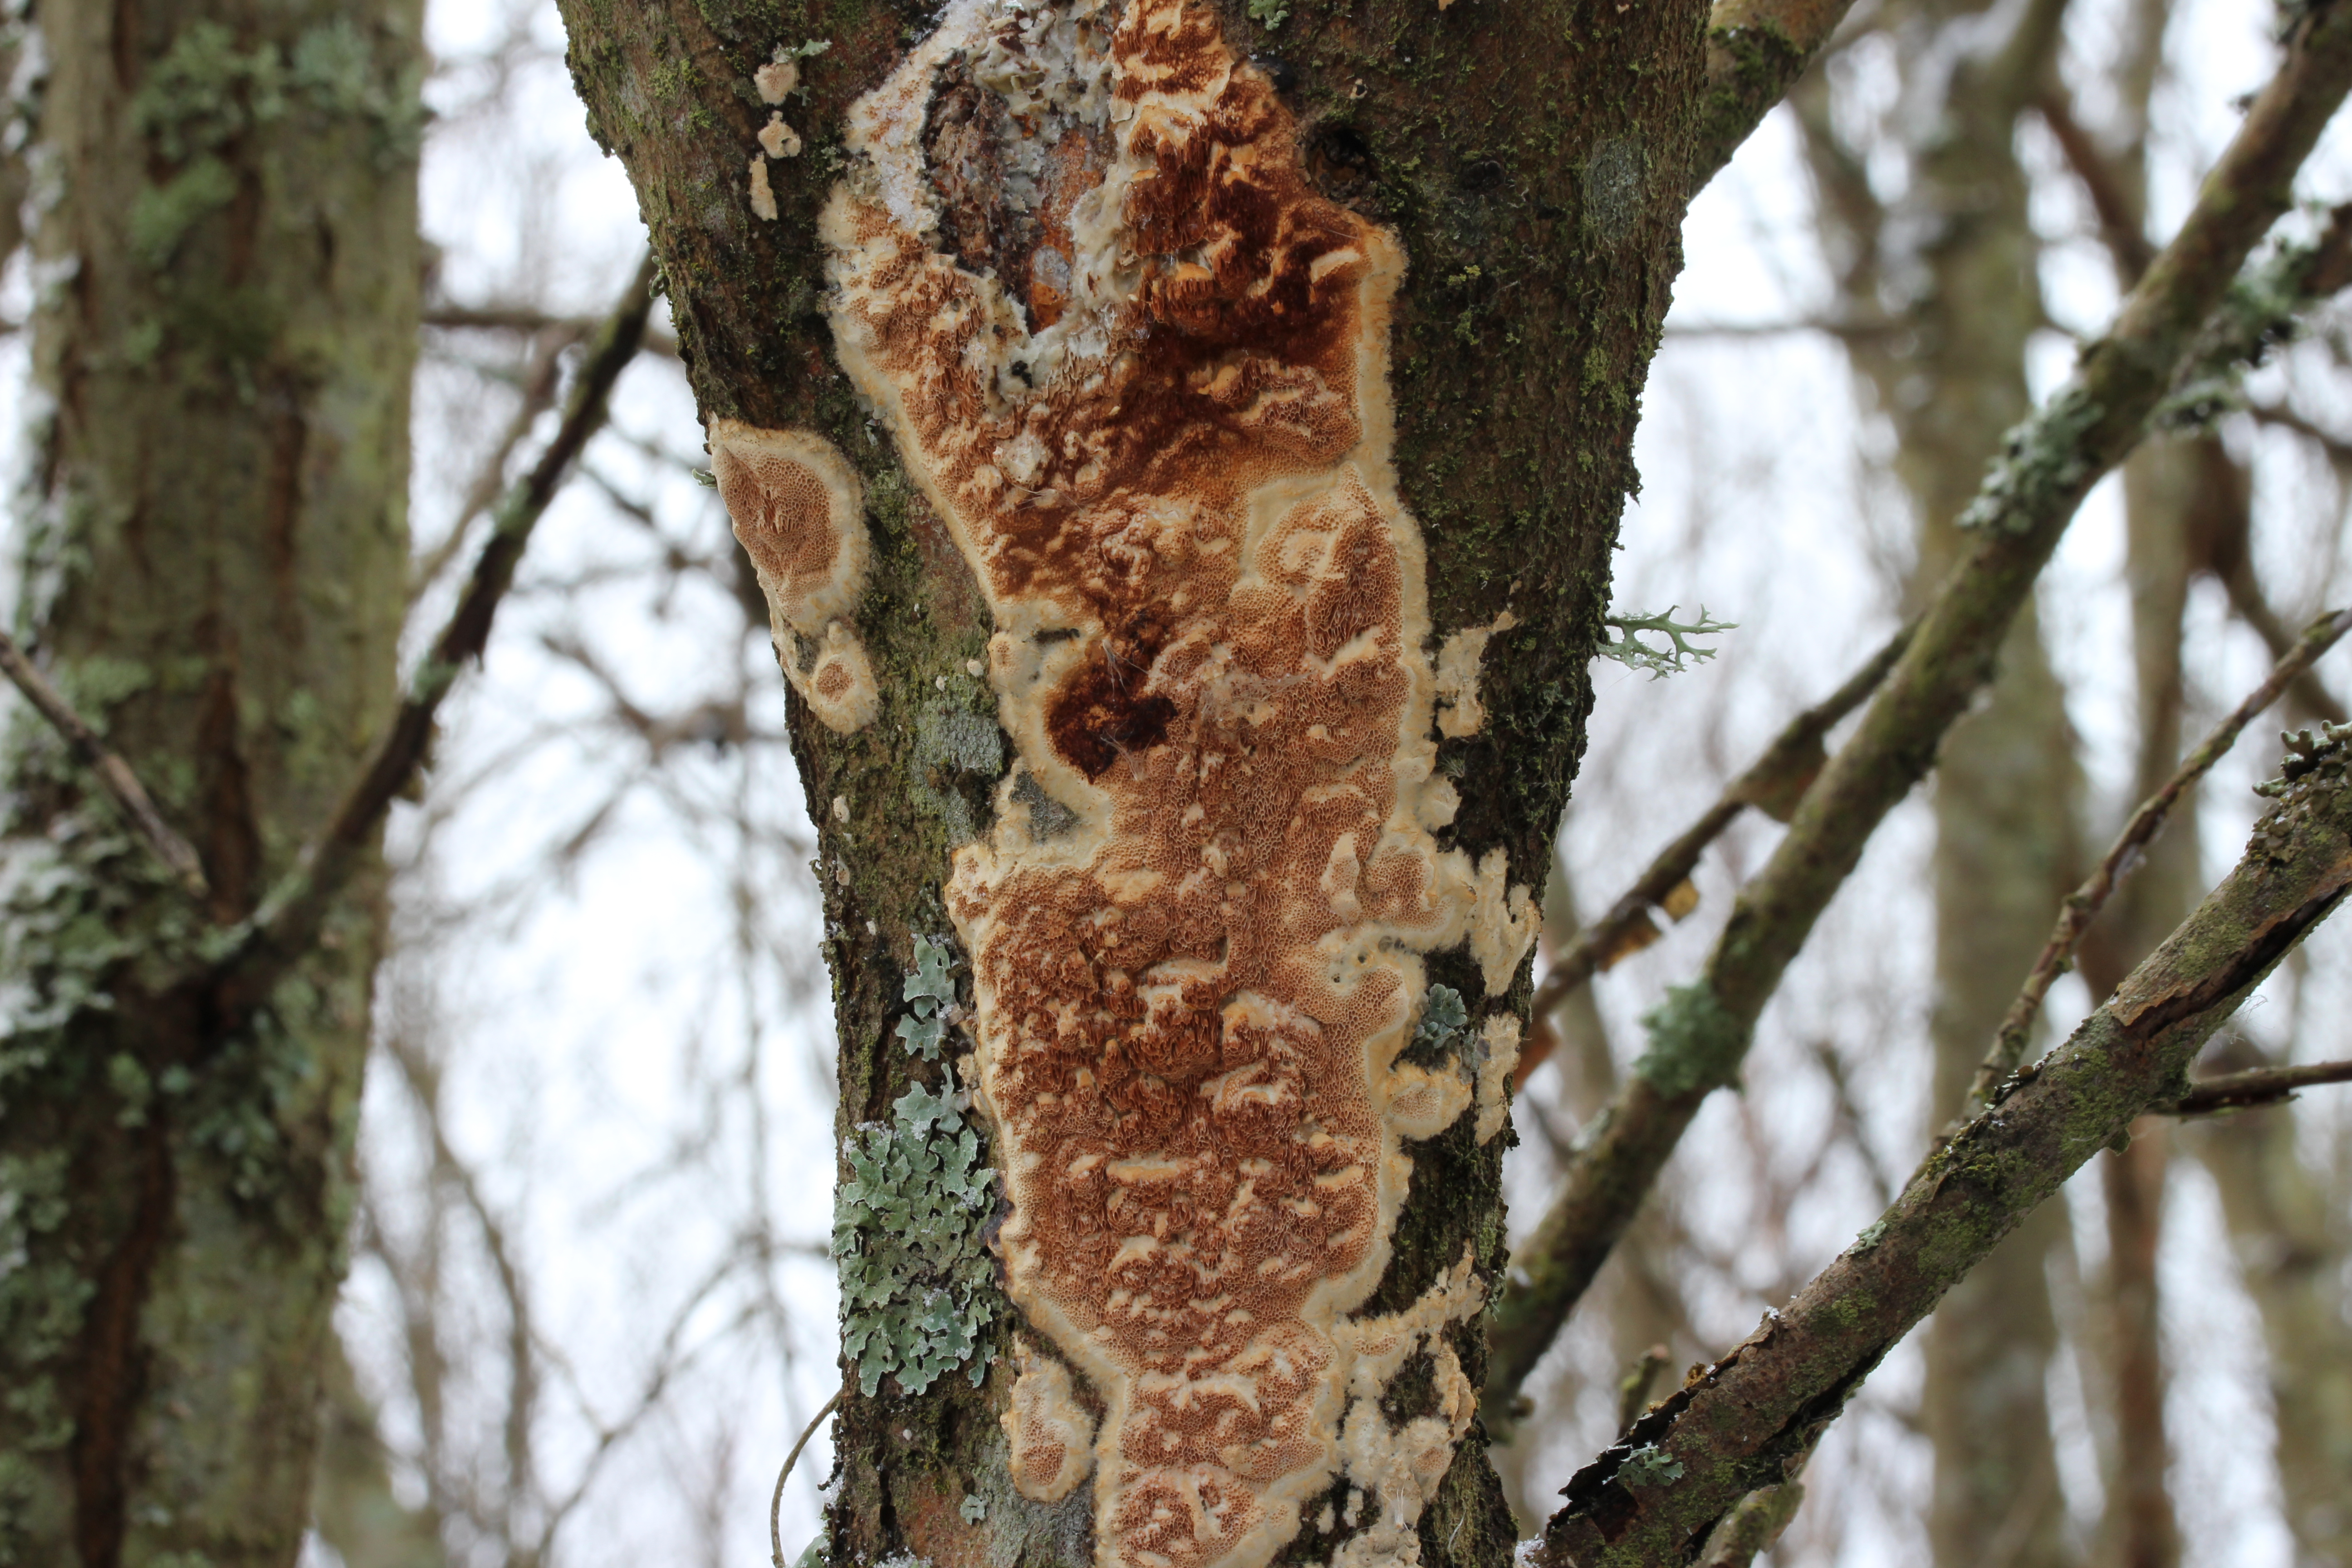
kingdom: Fungi
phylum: Basidiomycota
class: Agaricomycetes
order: Polyporales
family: Irpicaceae
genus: Resiniporus
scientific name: Resiniporus pseudogilvescens
